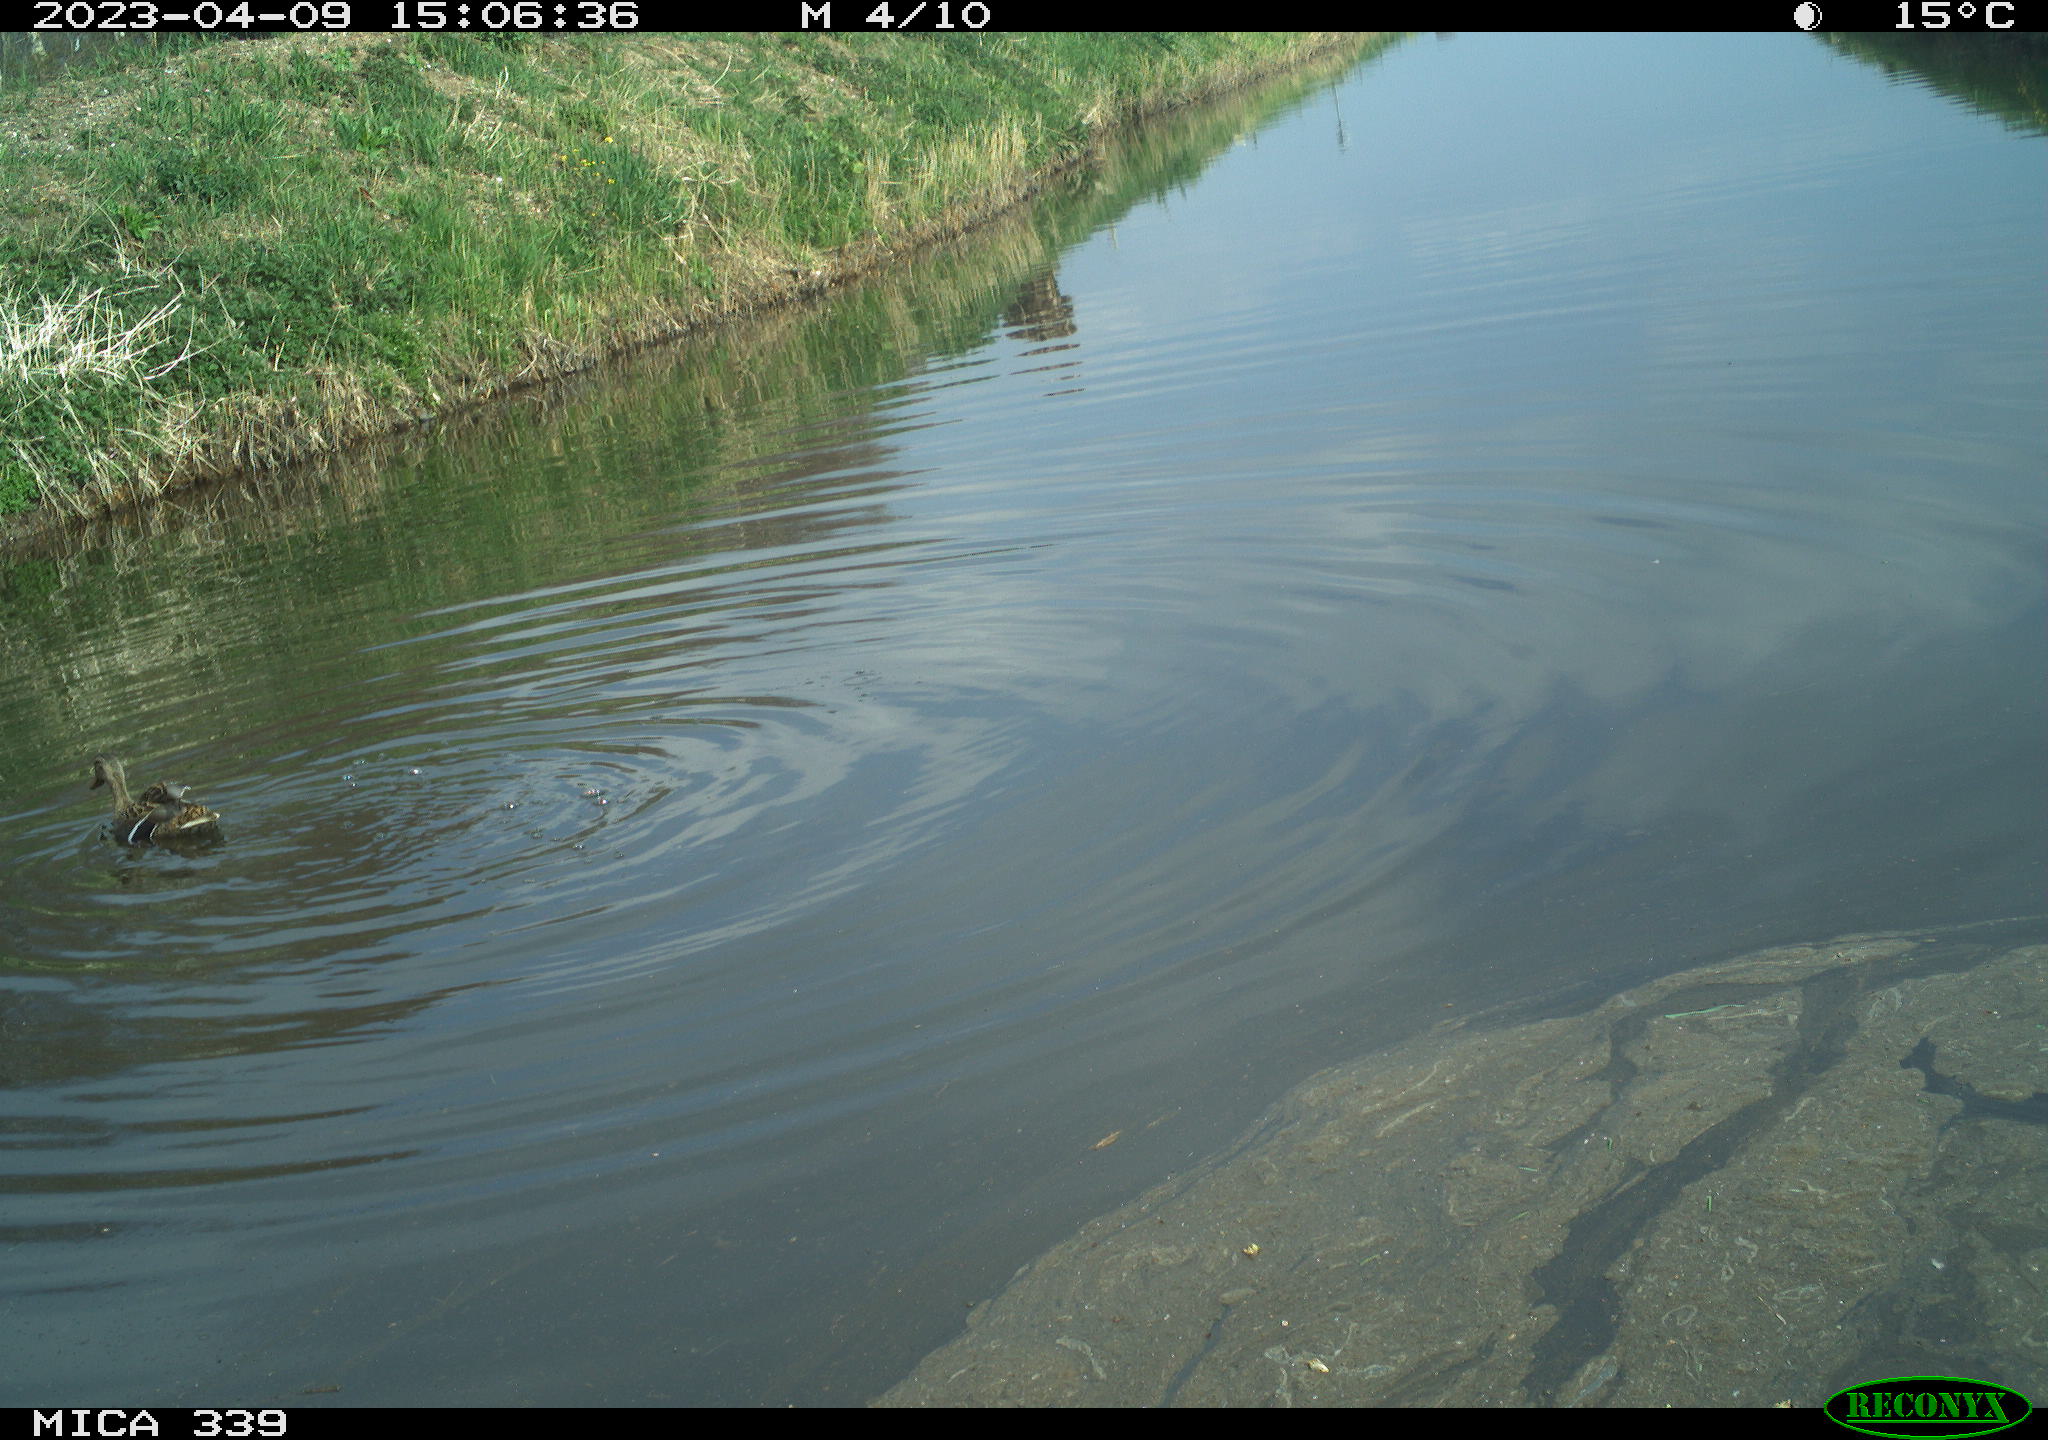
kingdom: Animalia
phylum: Chordata
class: Aves
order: Anseriformes
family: Anatidae
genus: Anas
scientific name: Anas platyrhynchos
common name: Mallard
